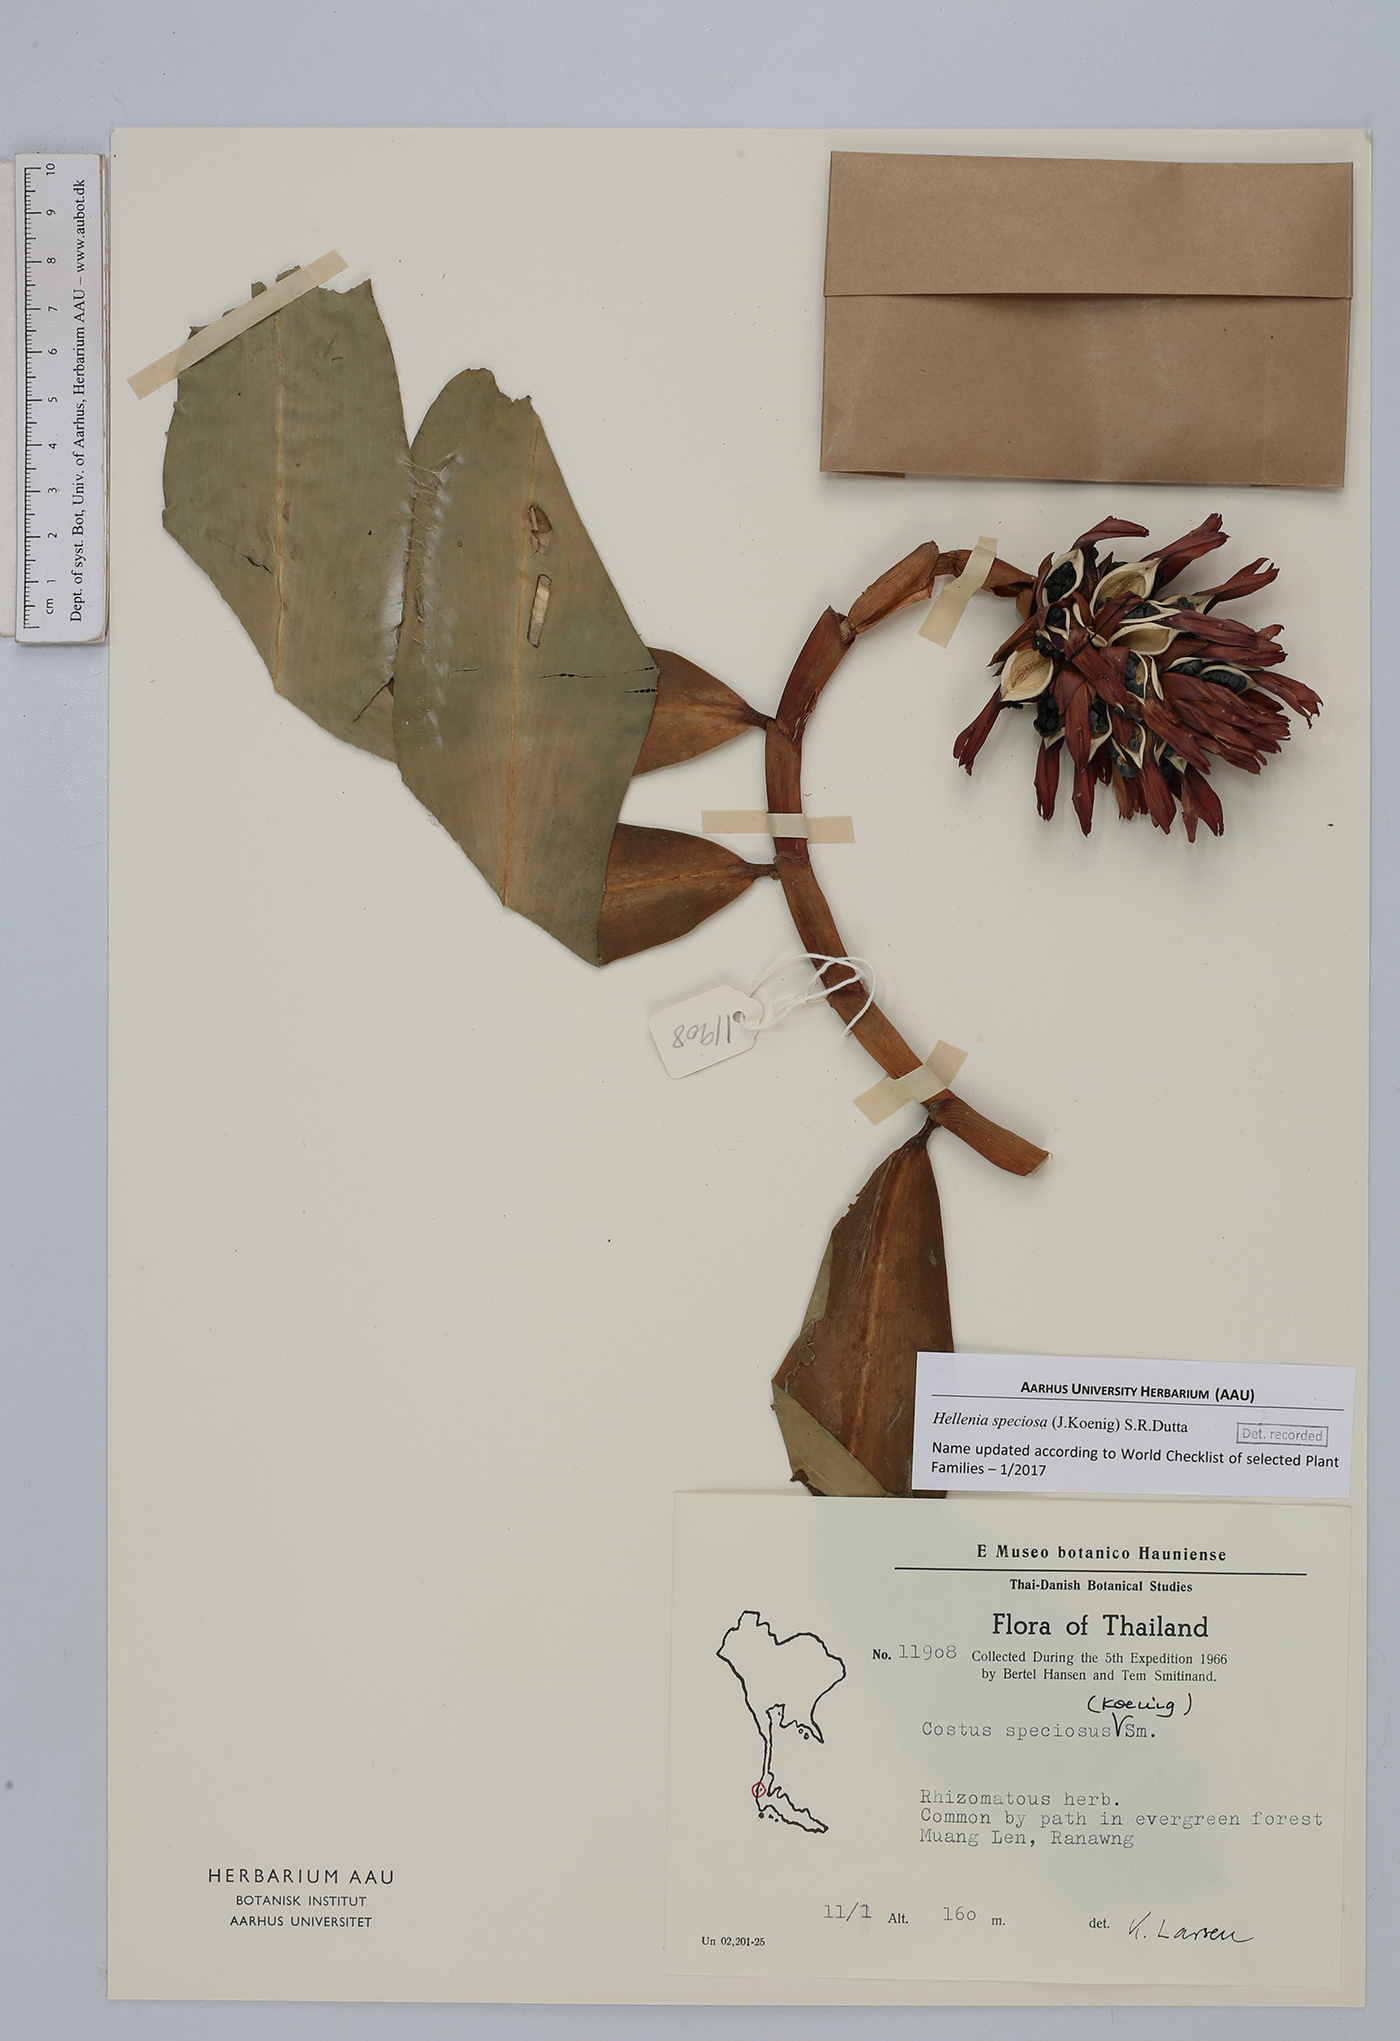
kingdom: Plantae
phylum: Tracheophyta
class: Liliopsida
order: Zingiberales
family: Costaceae
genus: Hellenia
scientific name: Hellenia speciosa
